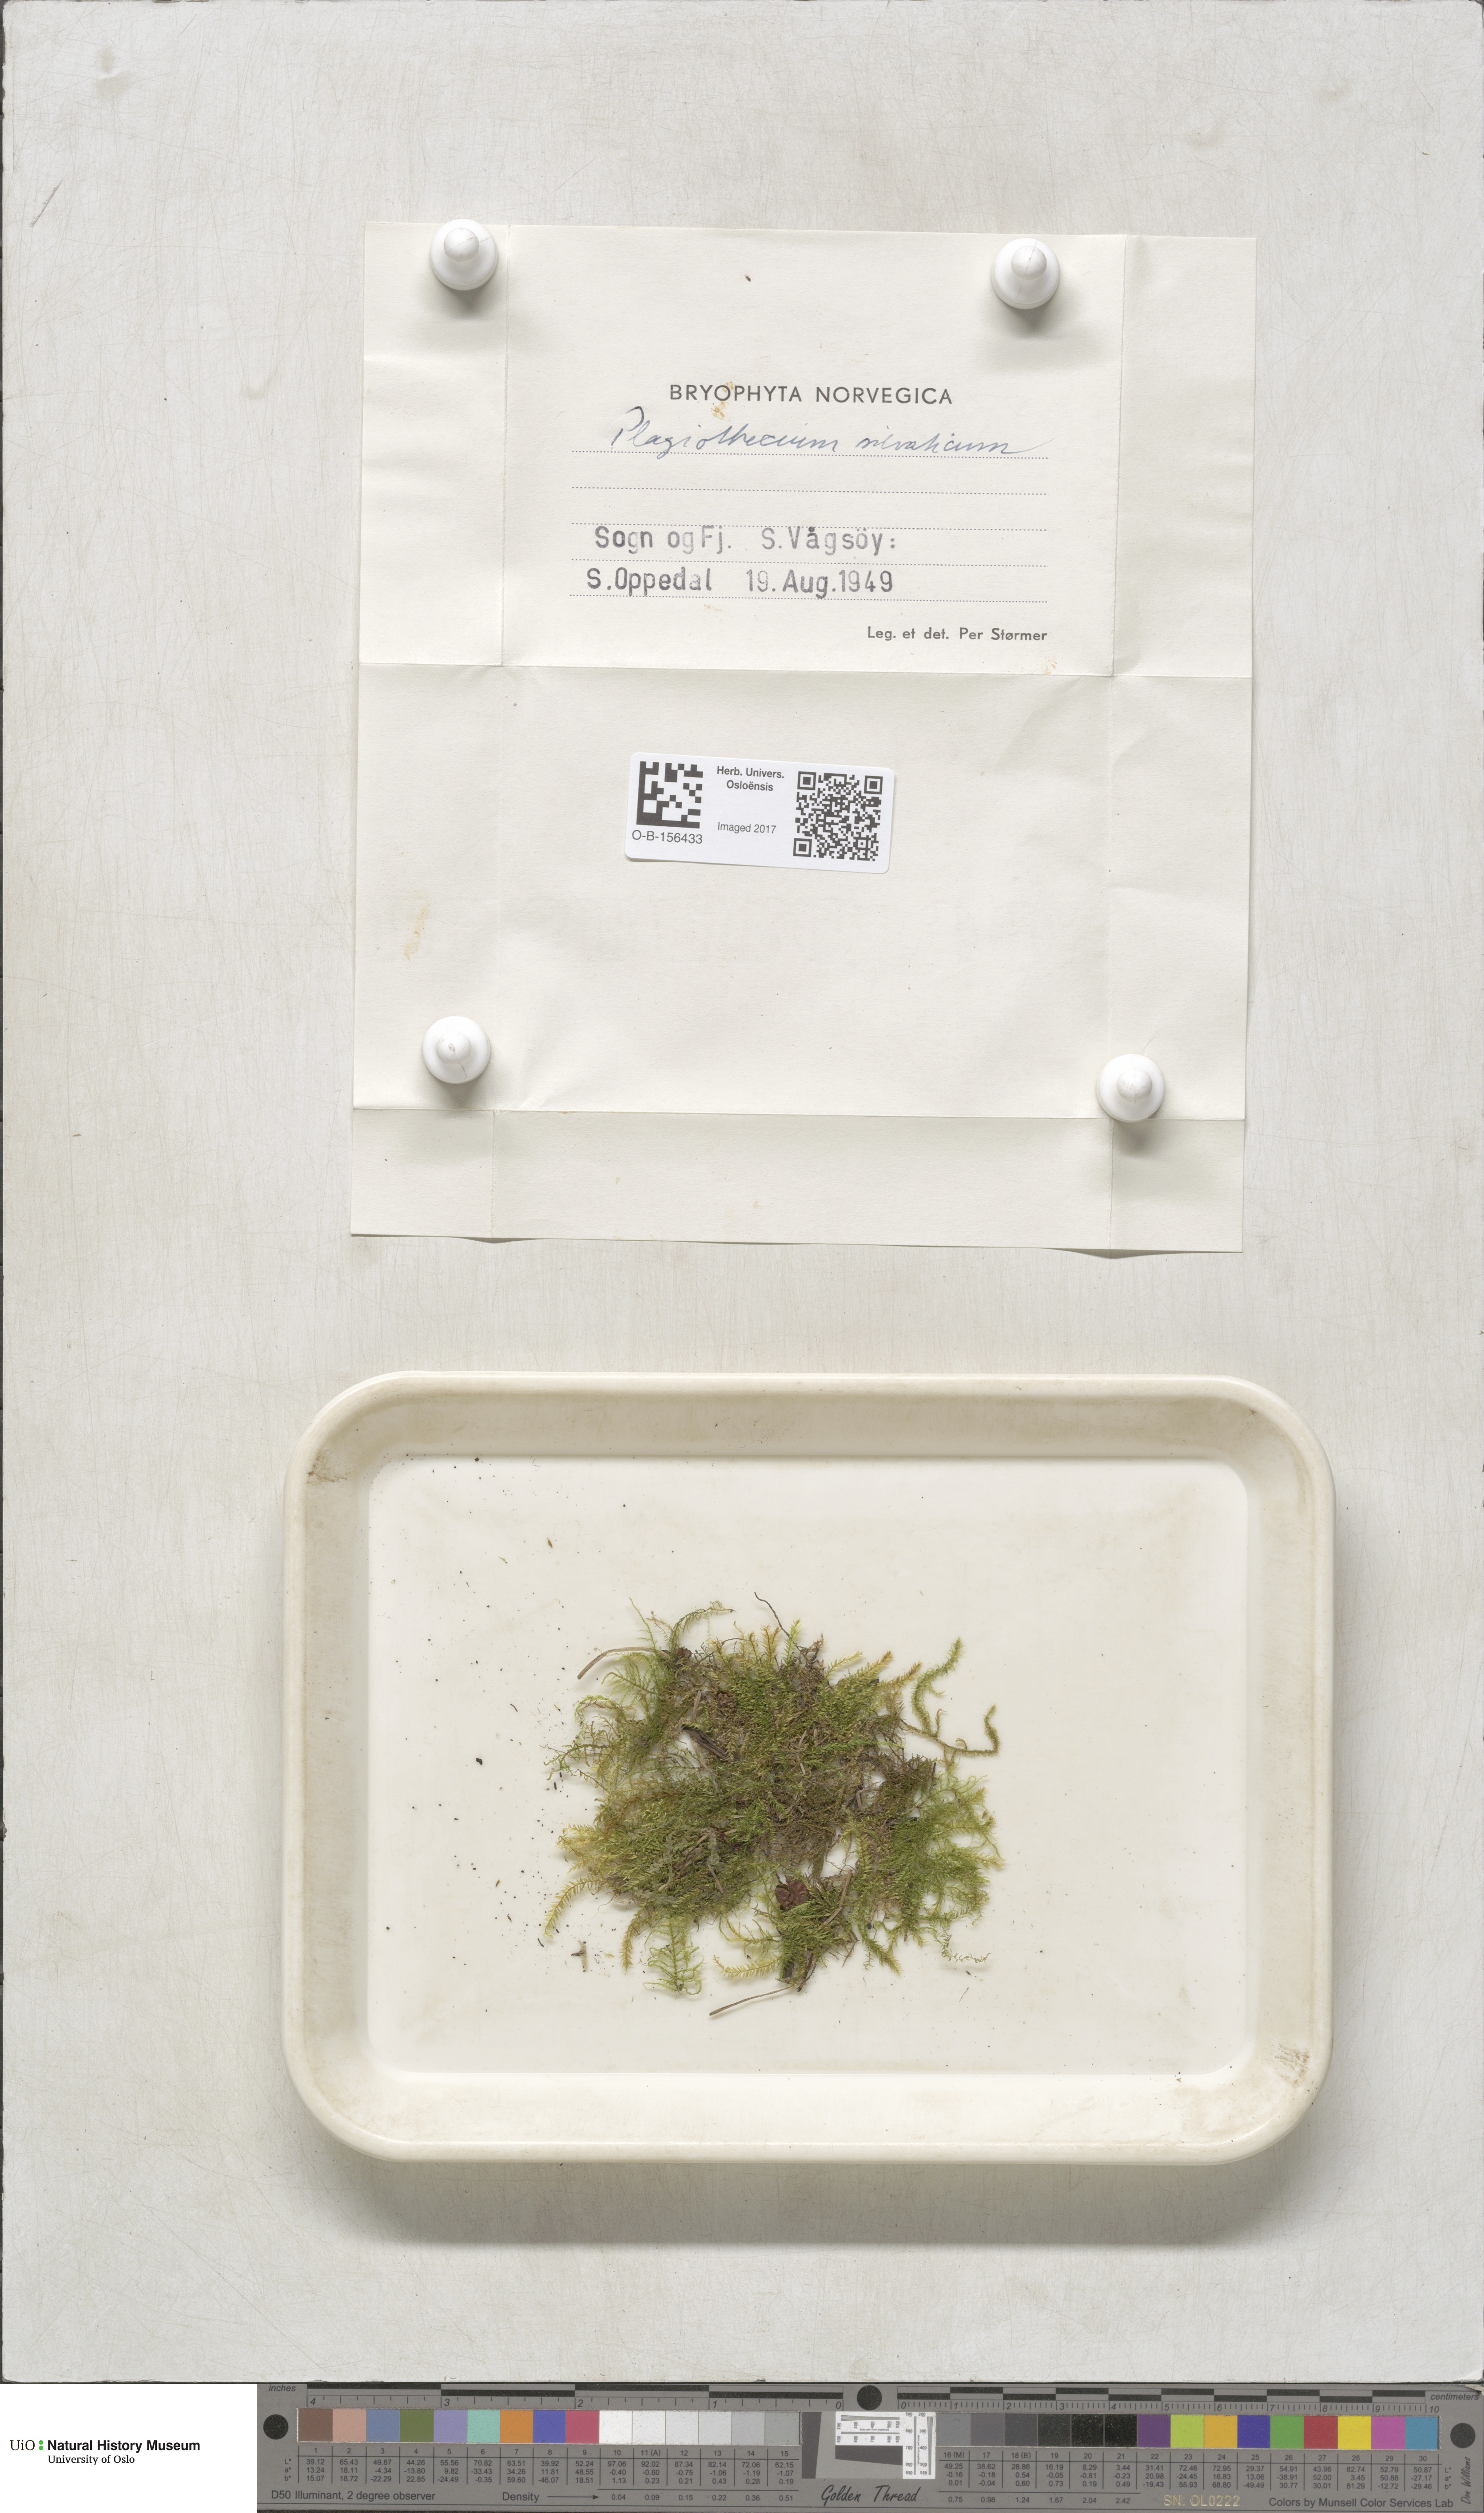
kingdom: Plantae
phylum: Bryophyta
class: Bryopsida
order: Hypnales
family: Plagiotheciaceae
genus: Plagiothecium
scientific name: Plagiothecium nemorale
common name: Woodsy silk-moss
